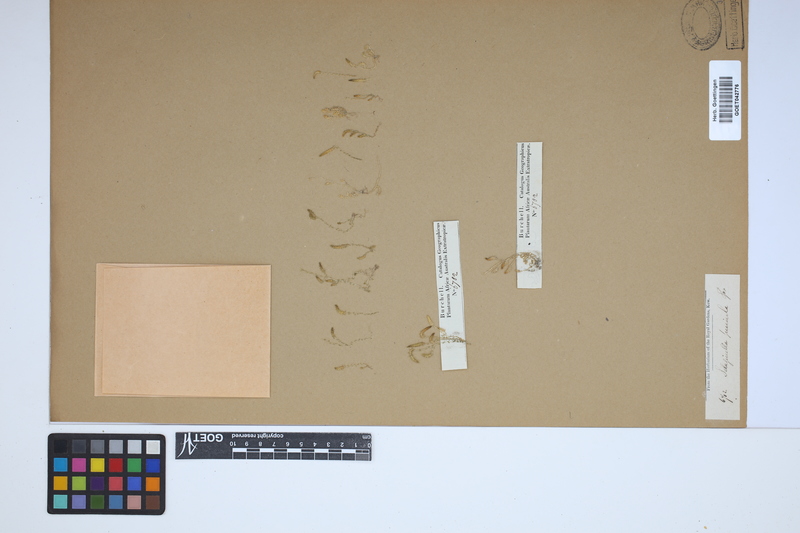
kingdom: Plantae
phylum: Tracheophyta
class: Lycopodiopsida
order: Selaginellales
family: Selaginellaceae
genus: Selaginella
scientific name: Selaginella pygmaea
